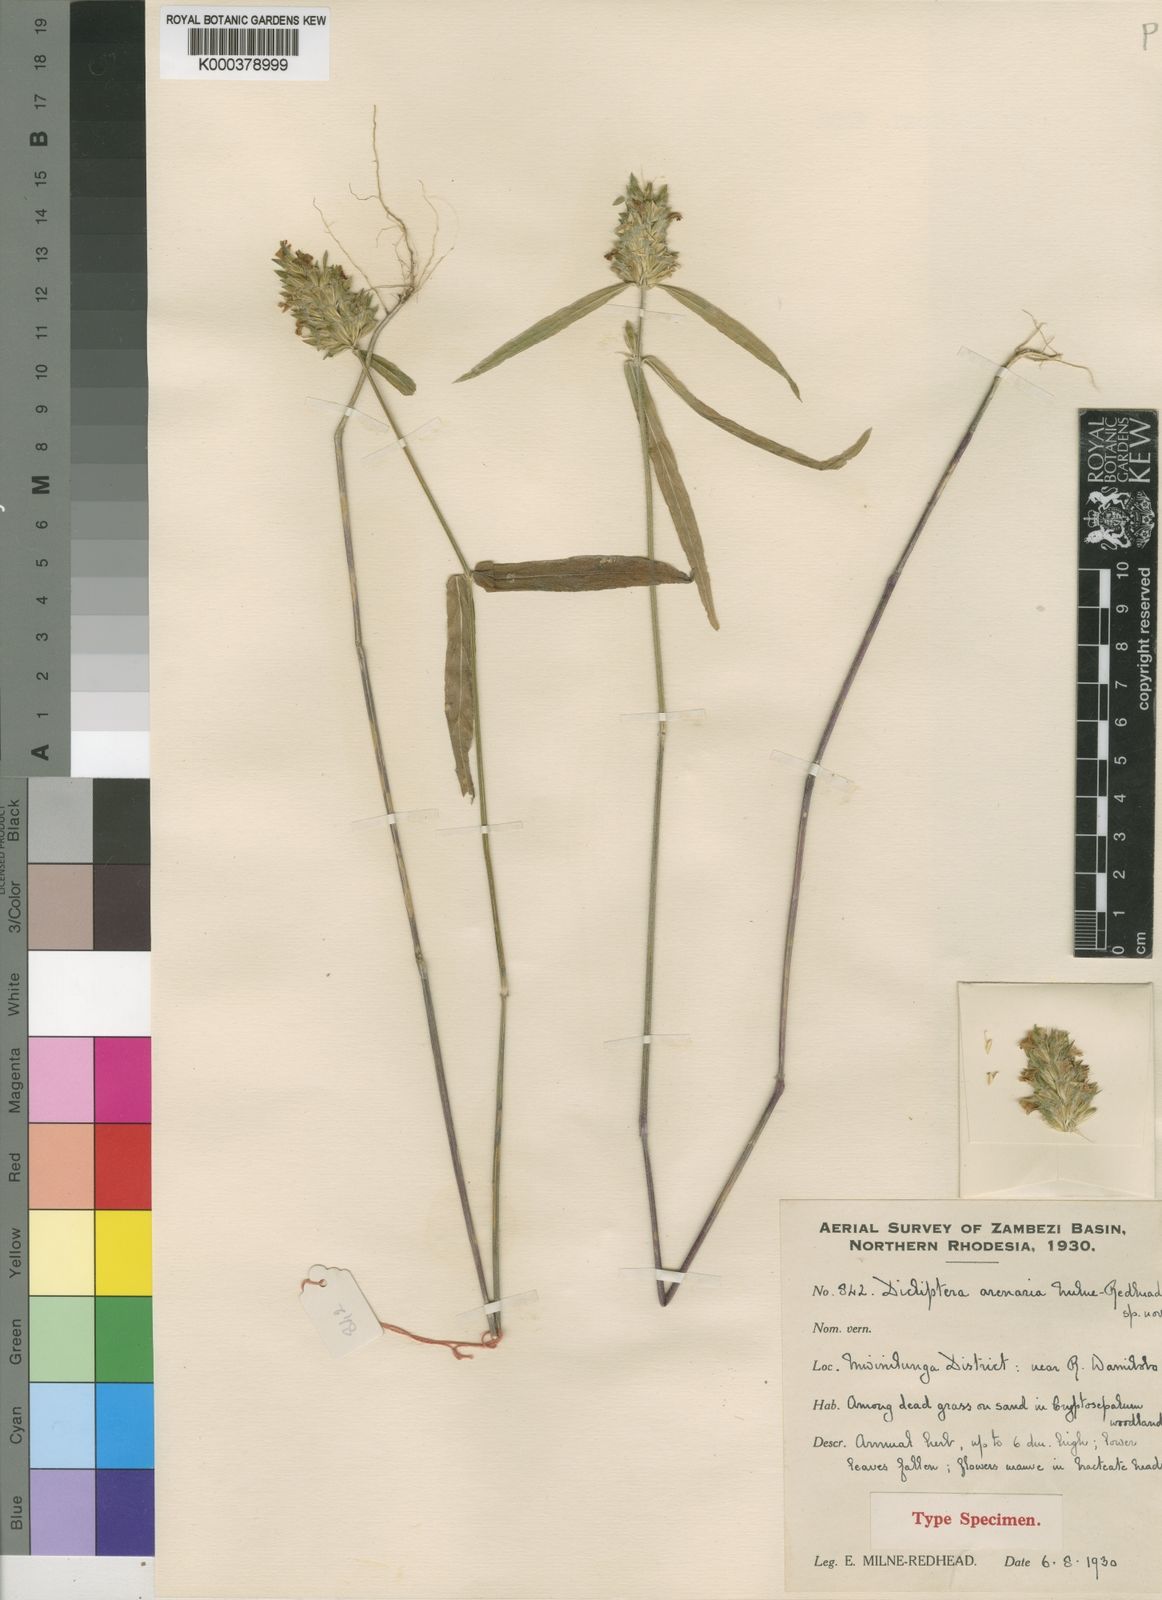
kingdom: Plantae
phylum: Tracheophyta
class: Magnoliopsida
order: Lamiales
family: Acanthaceae
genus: Dicliptera
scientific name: Dicliptera betonicoides
